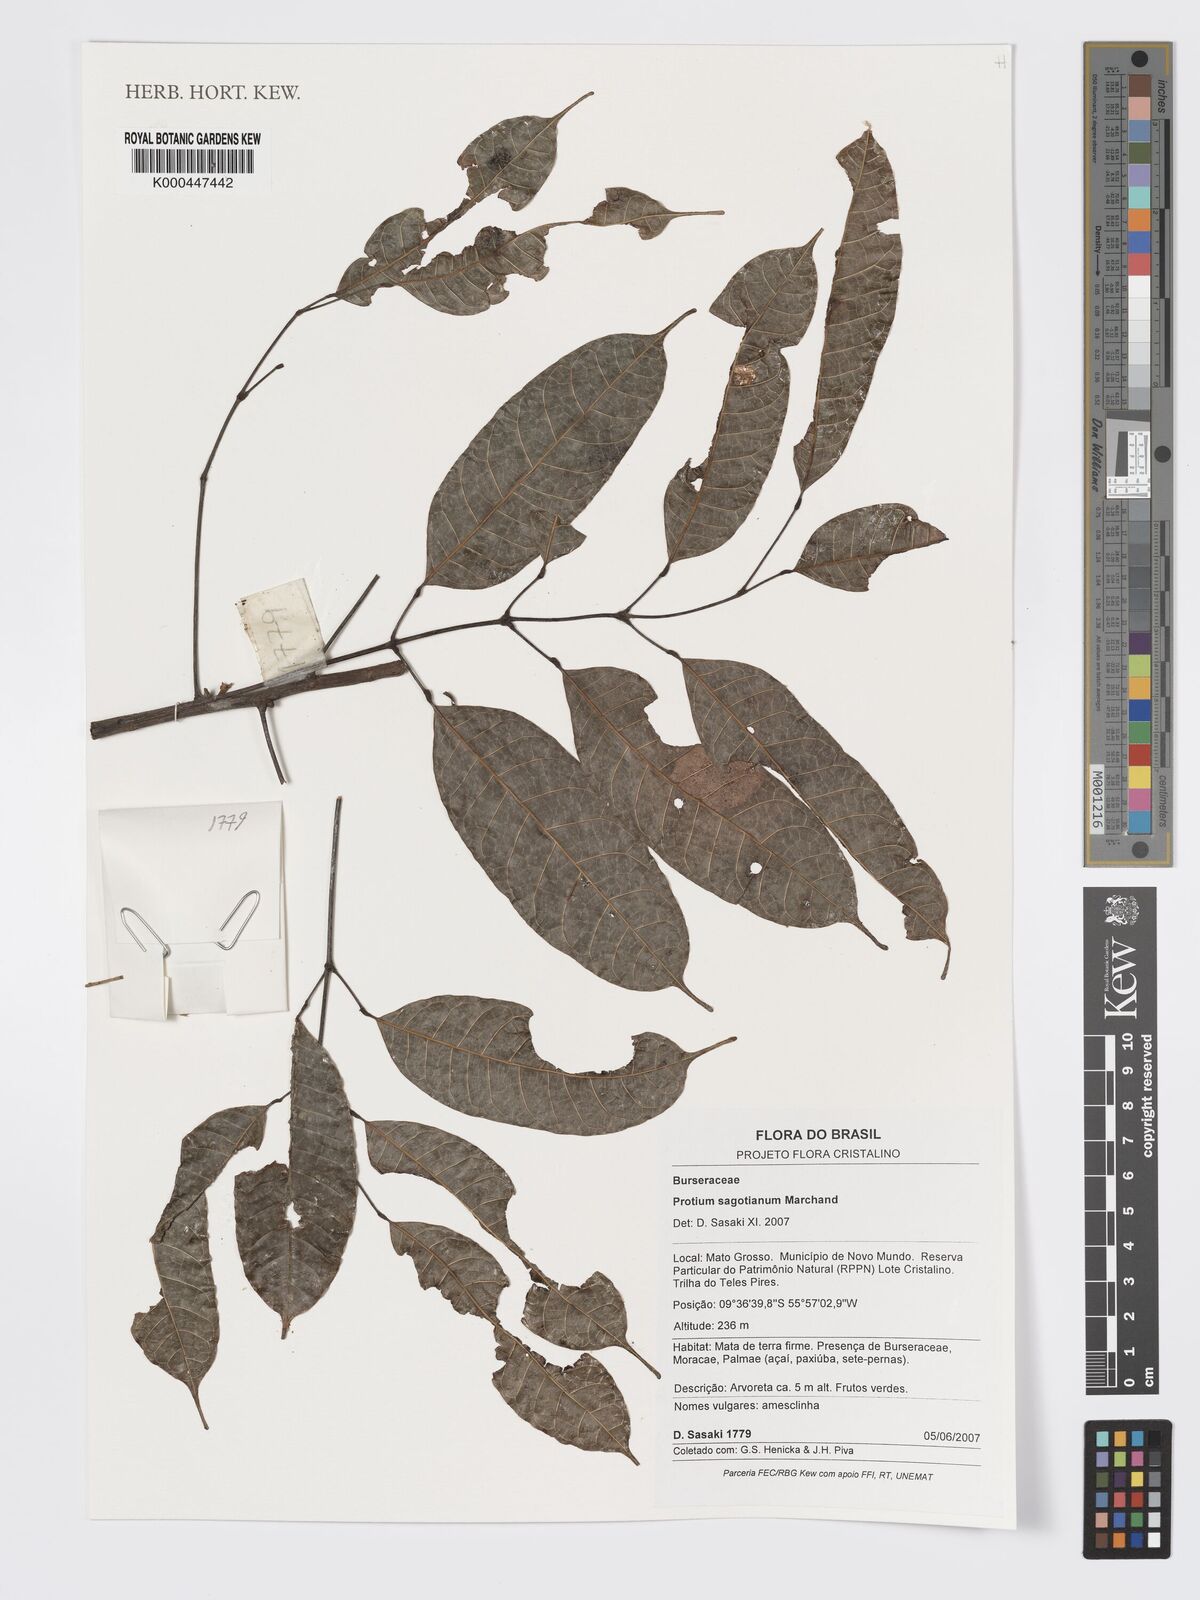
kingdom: Plantae
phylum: Tracheophyta
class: Magnoliopsida
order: Sapindales
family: Burseraceae
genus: Protium
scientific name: Protium sagotianum
